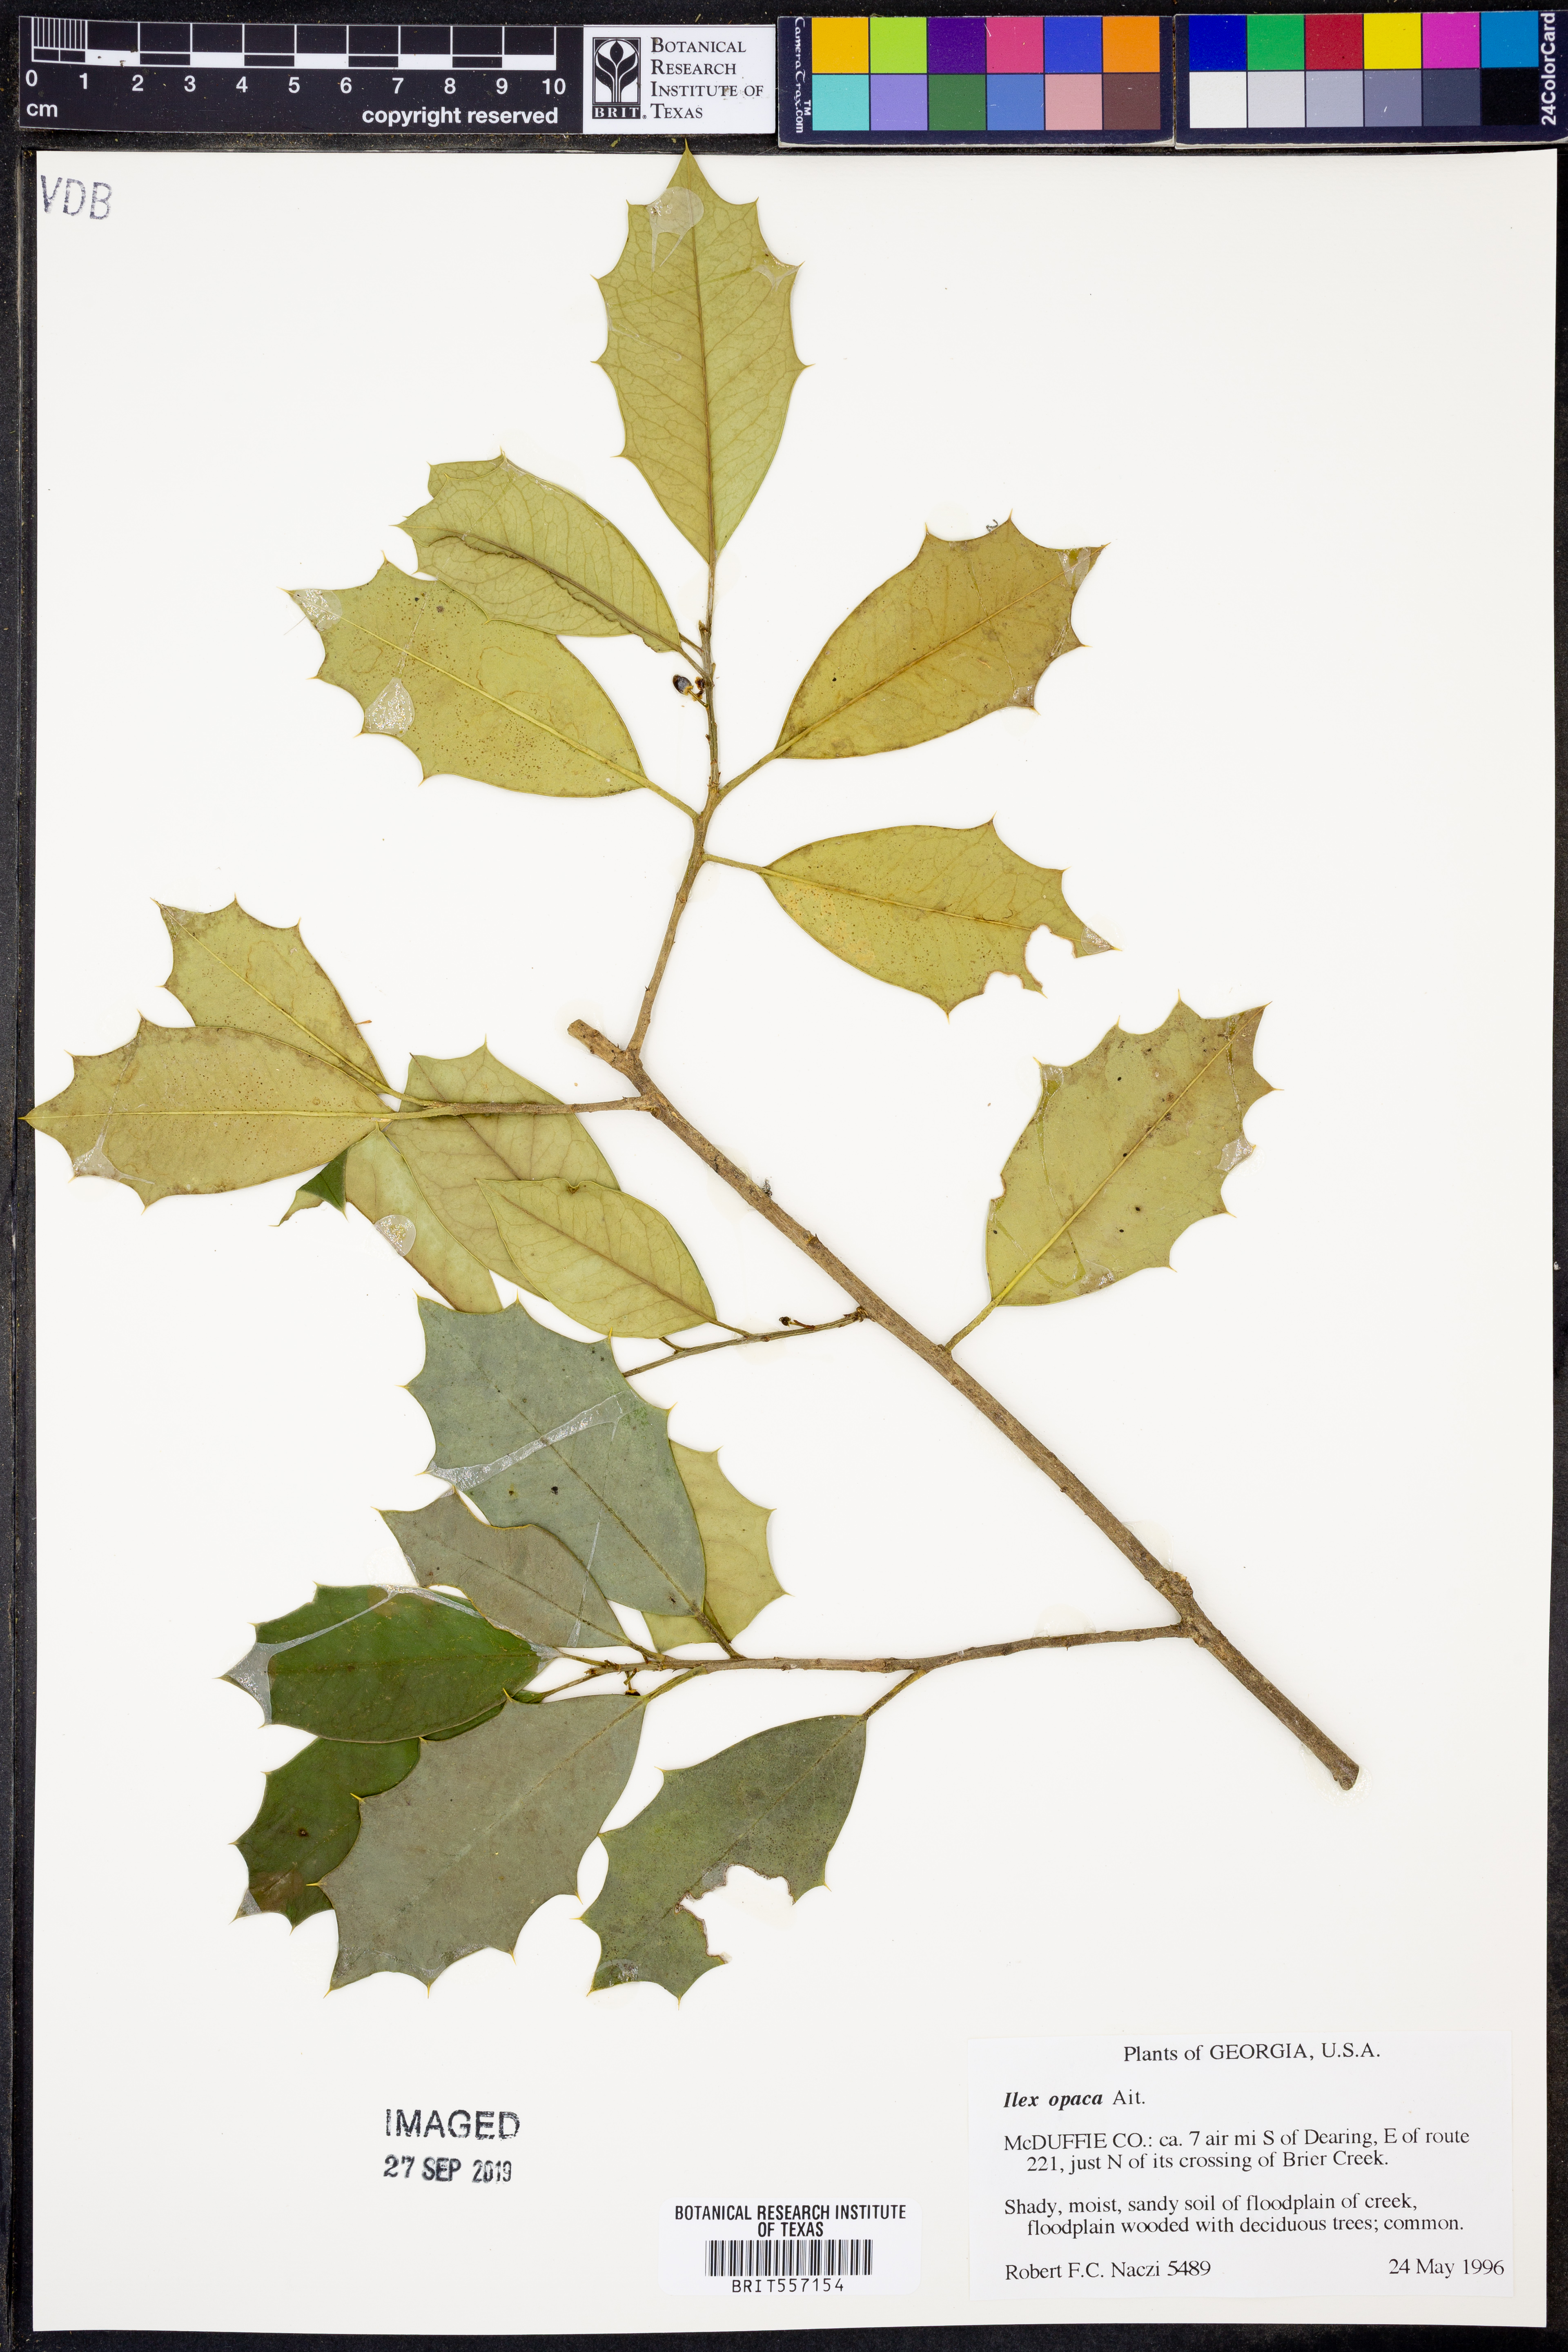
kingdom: Plantae
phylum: Tracheophyta
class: Magnoliopsida
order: Aquifoliales
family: Aquifoliaceae
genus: Ilex
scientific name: Ilex opaca
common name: American holly
